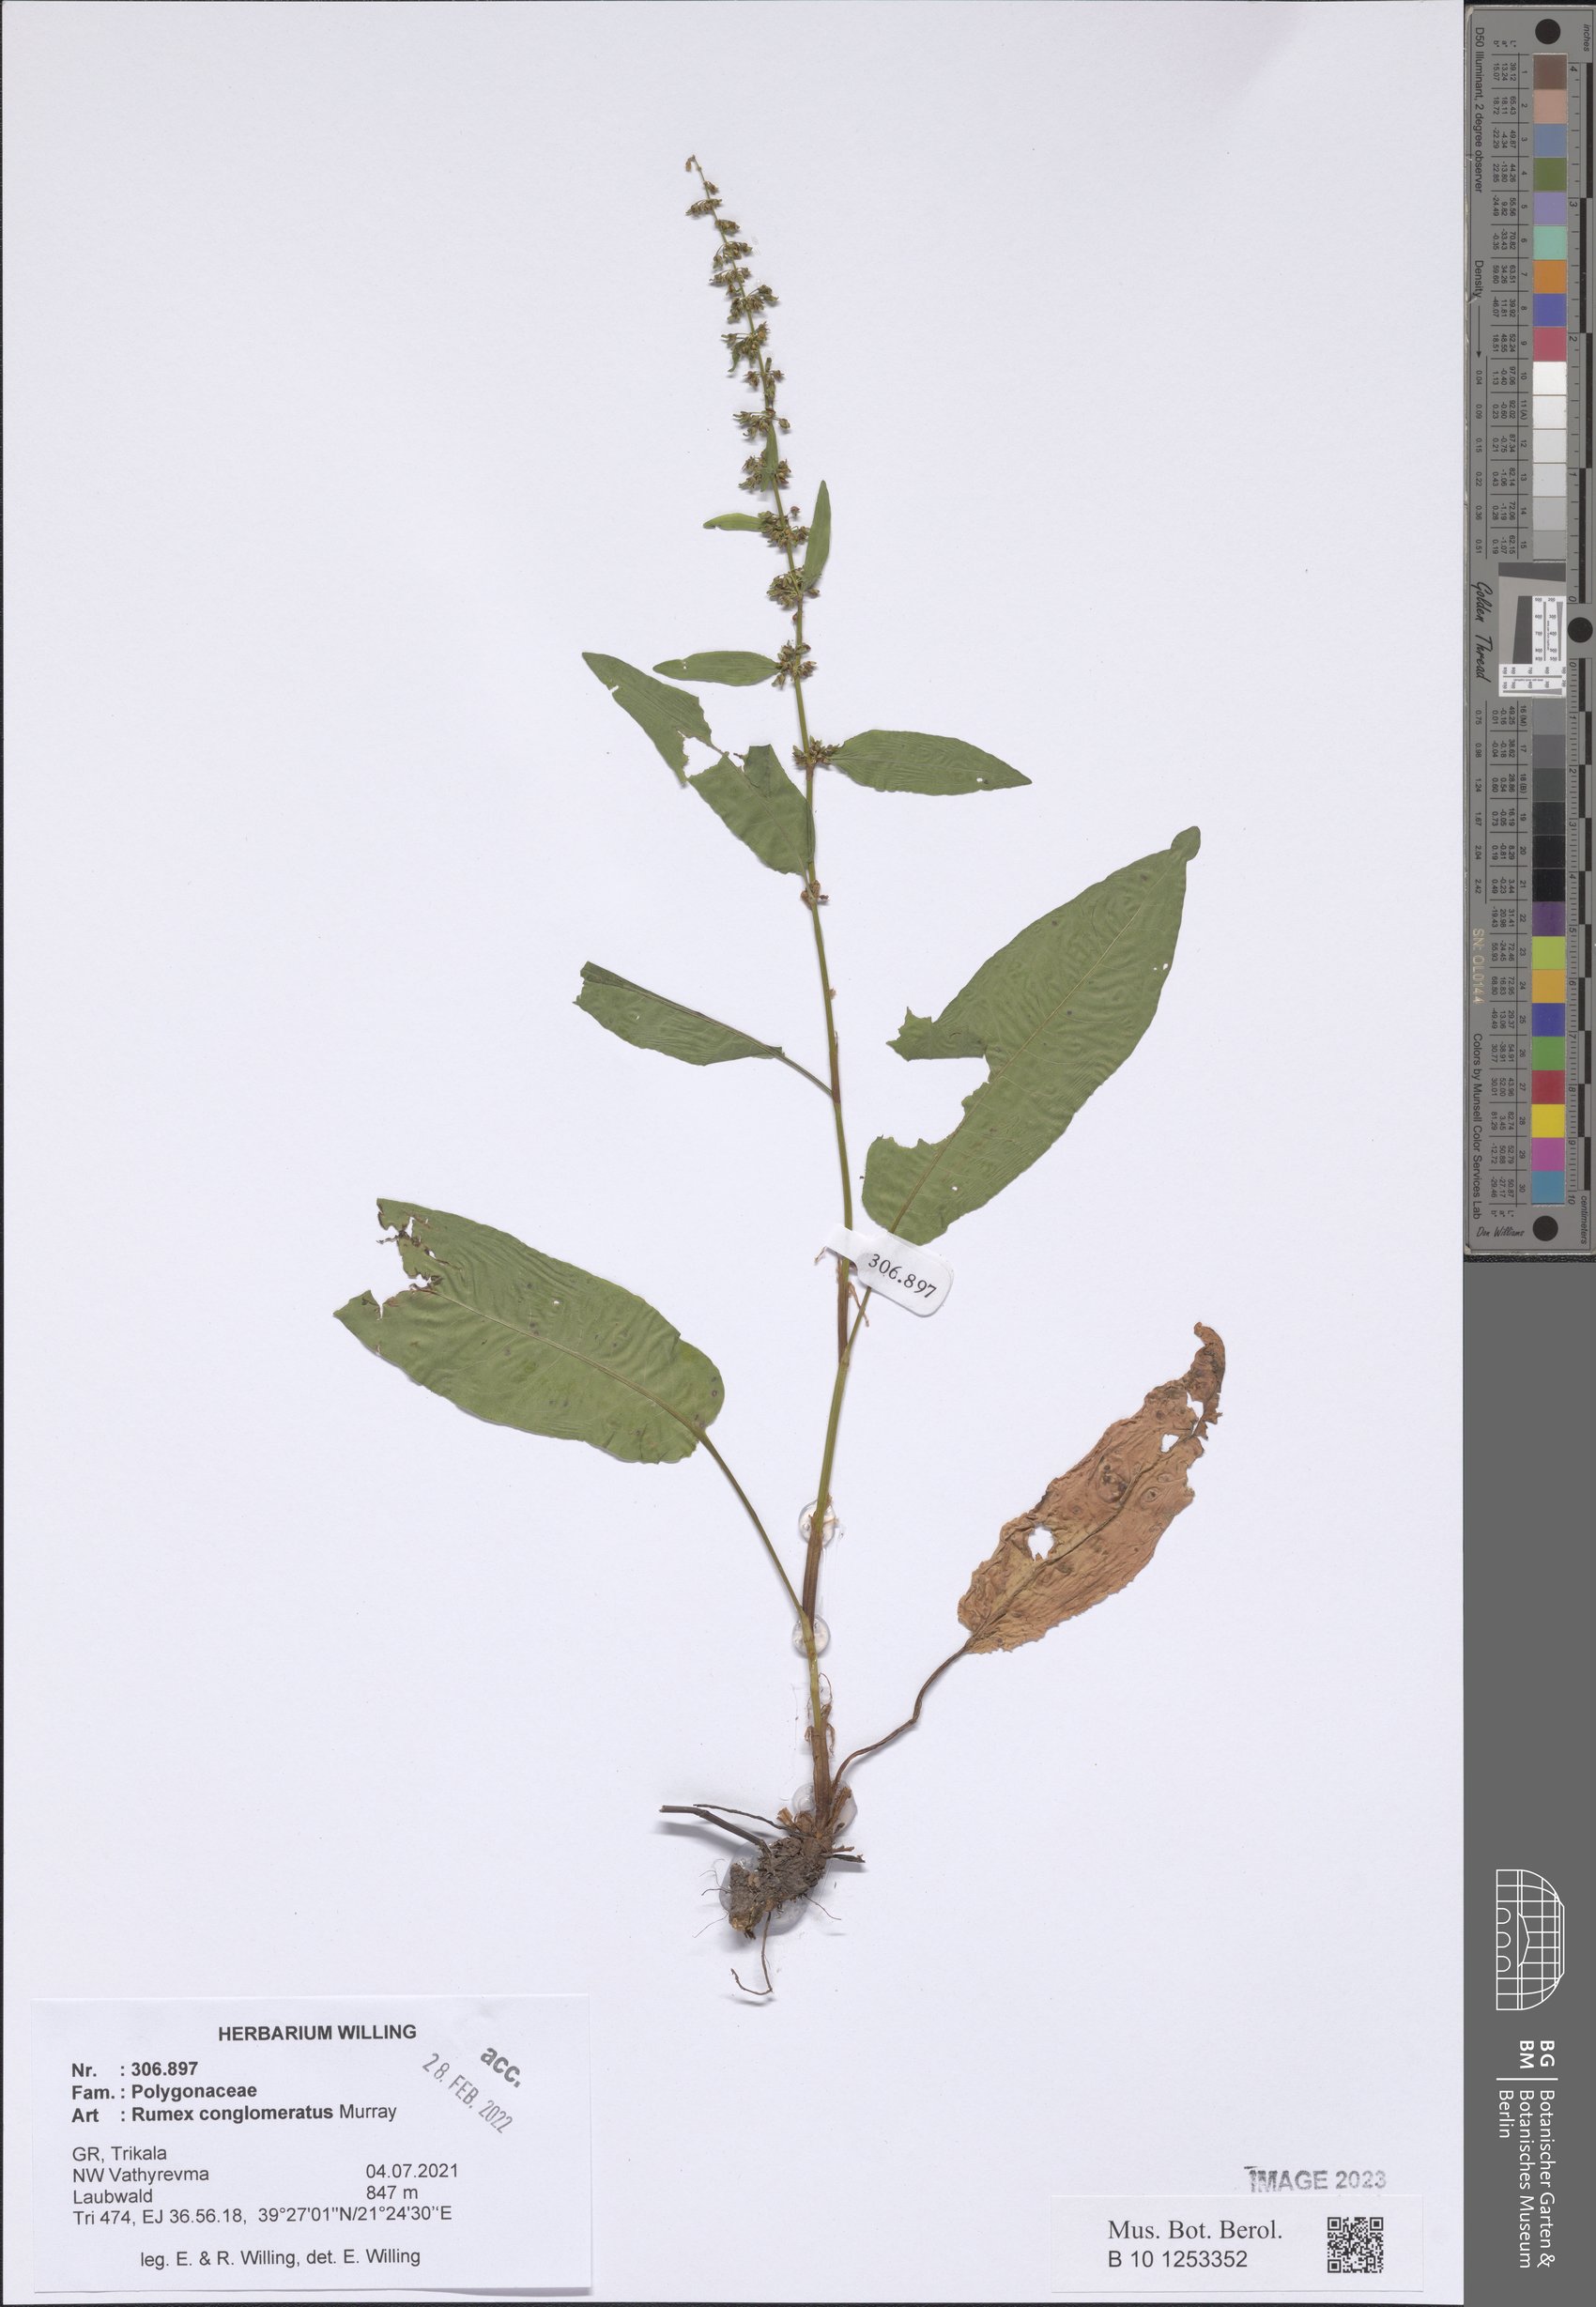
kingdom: Plantae
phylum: Tracheophyta
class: Magnoliopsida
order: Caryophyllales
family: Polygonaceae
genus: Rumex
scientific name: Rumex conglomeratus
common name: Clustered dock
